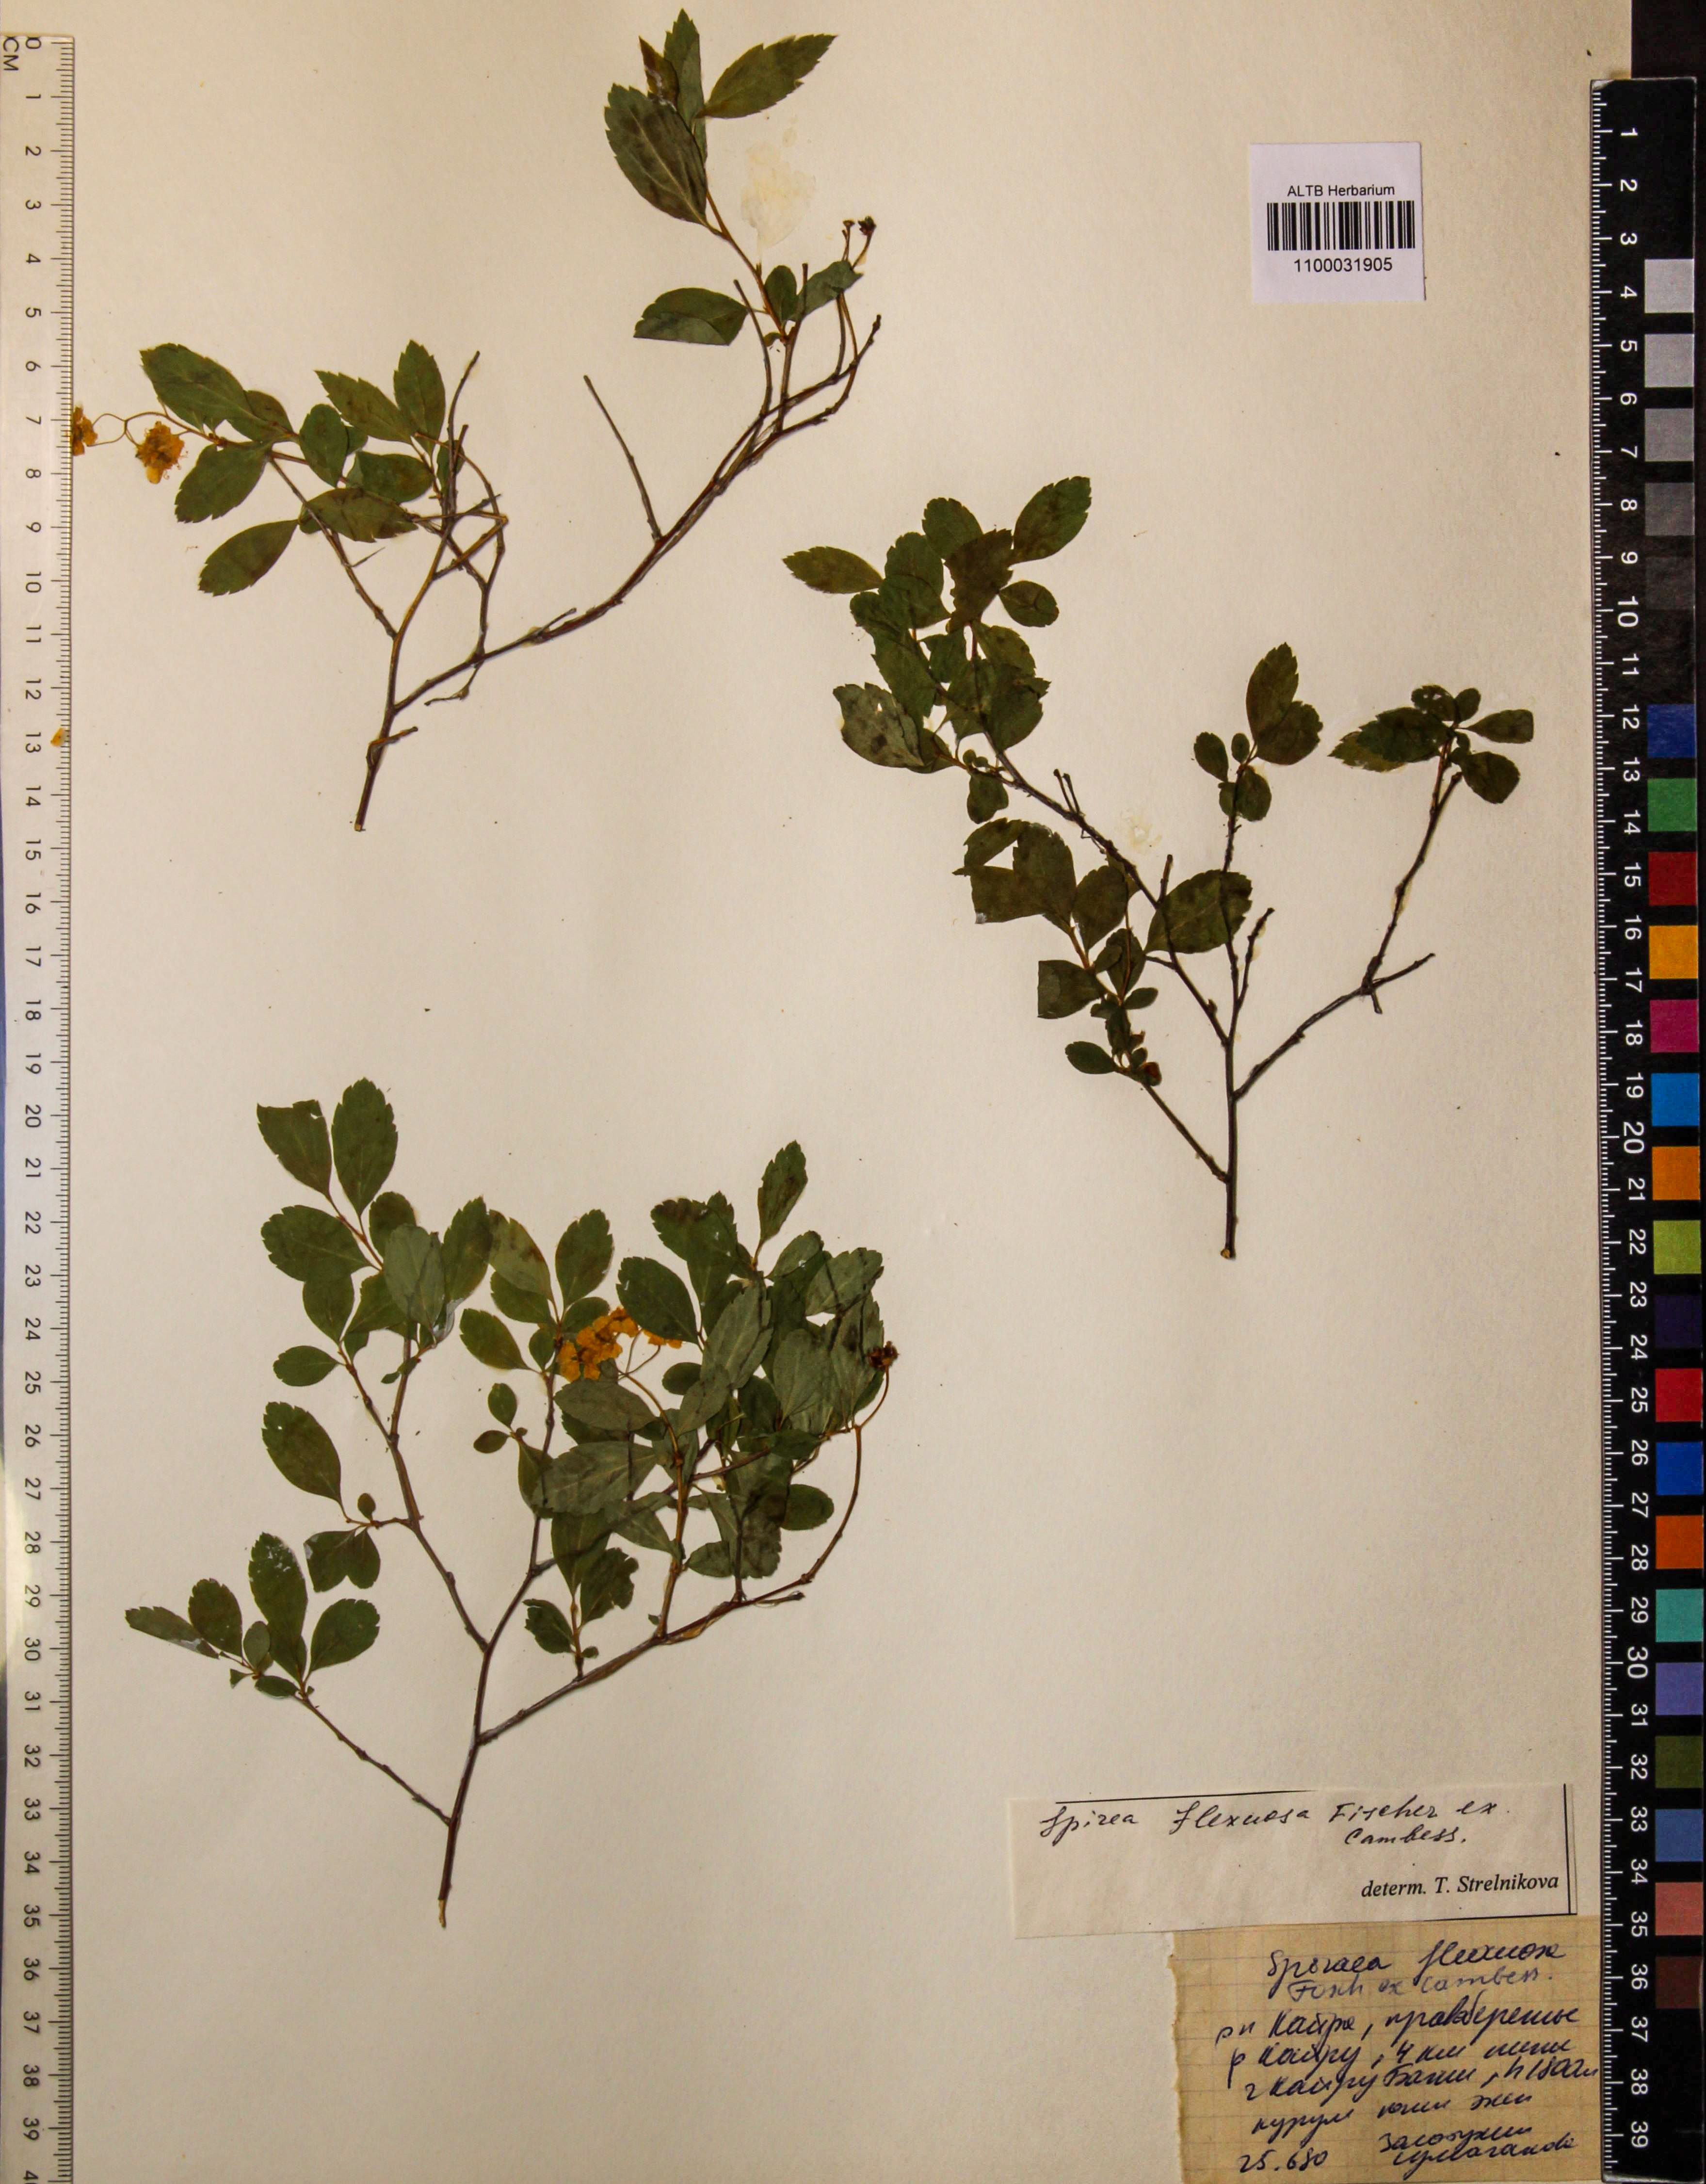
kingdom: Plantae
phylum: Tracheophyta
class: Magnoliopsida
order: Rosales
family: Rosaceae
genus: Spiraea
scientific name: Spiraea flexuosa
